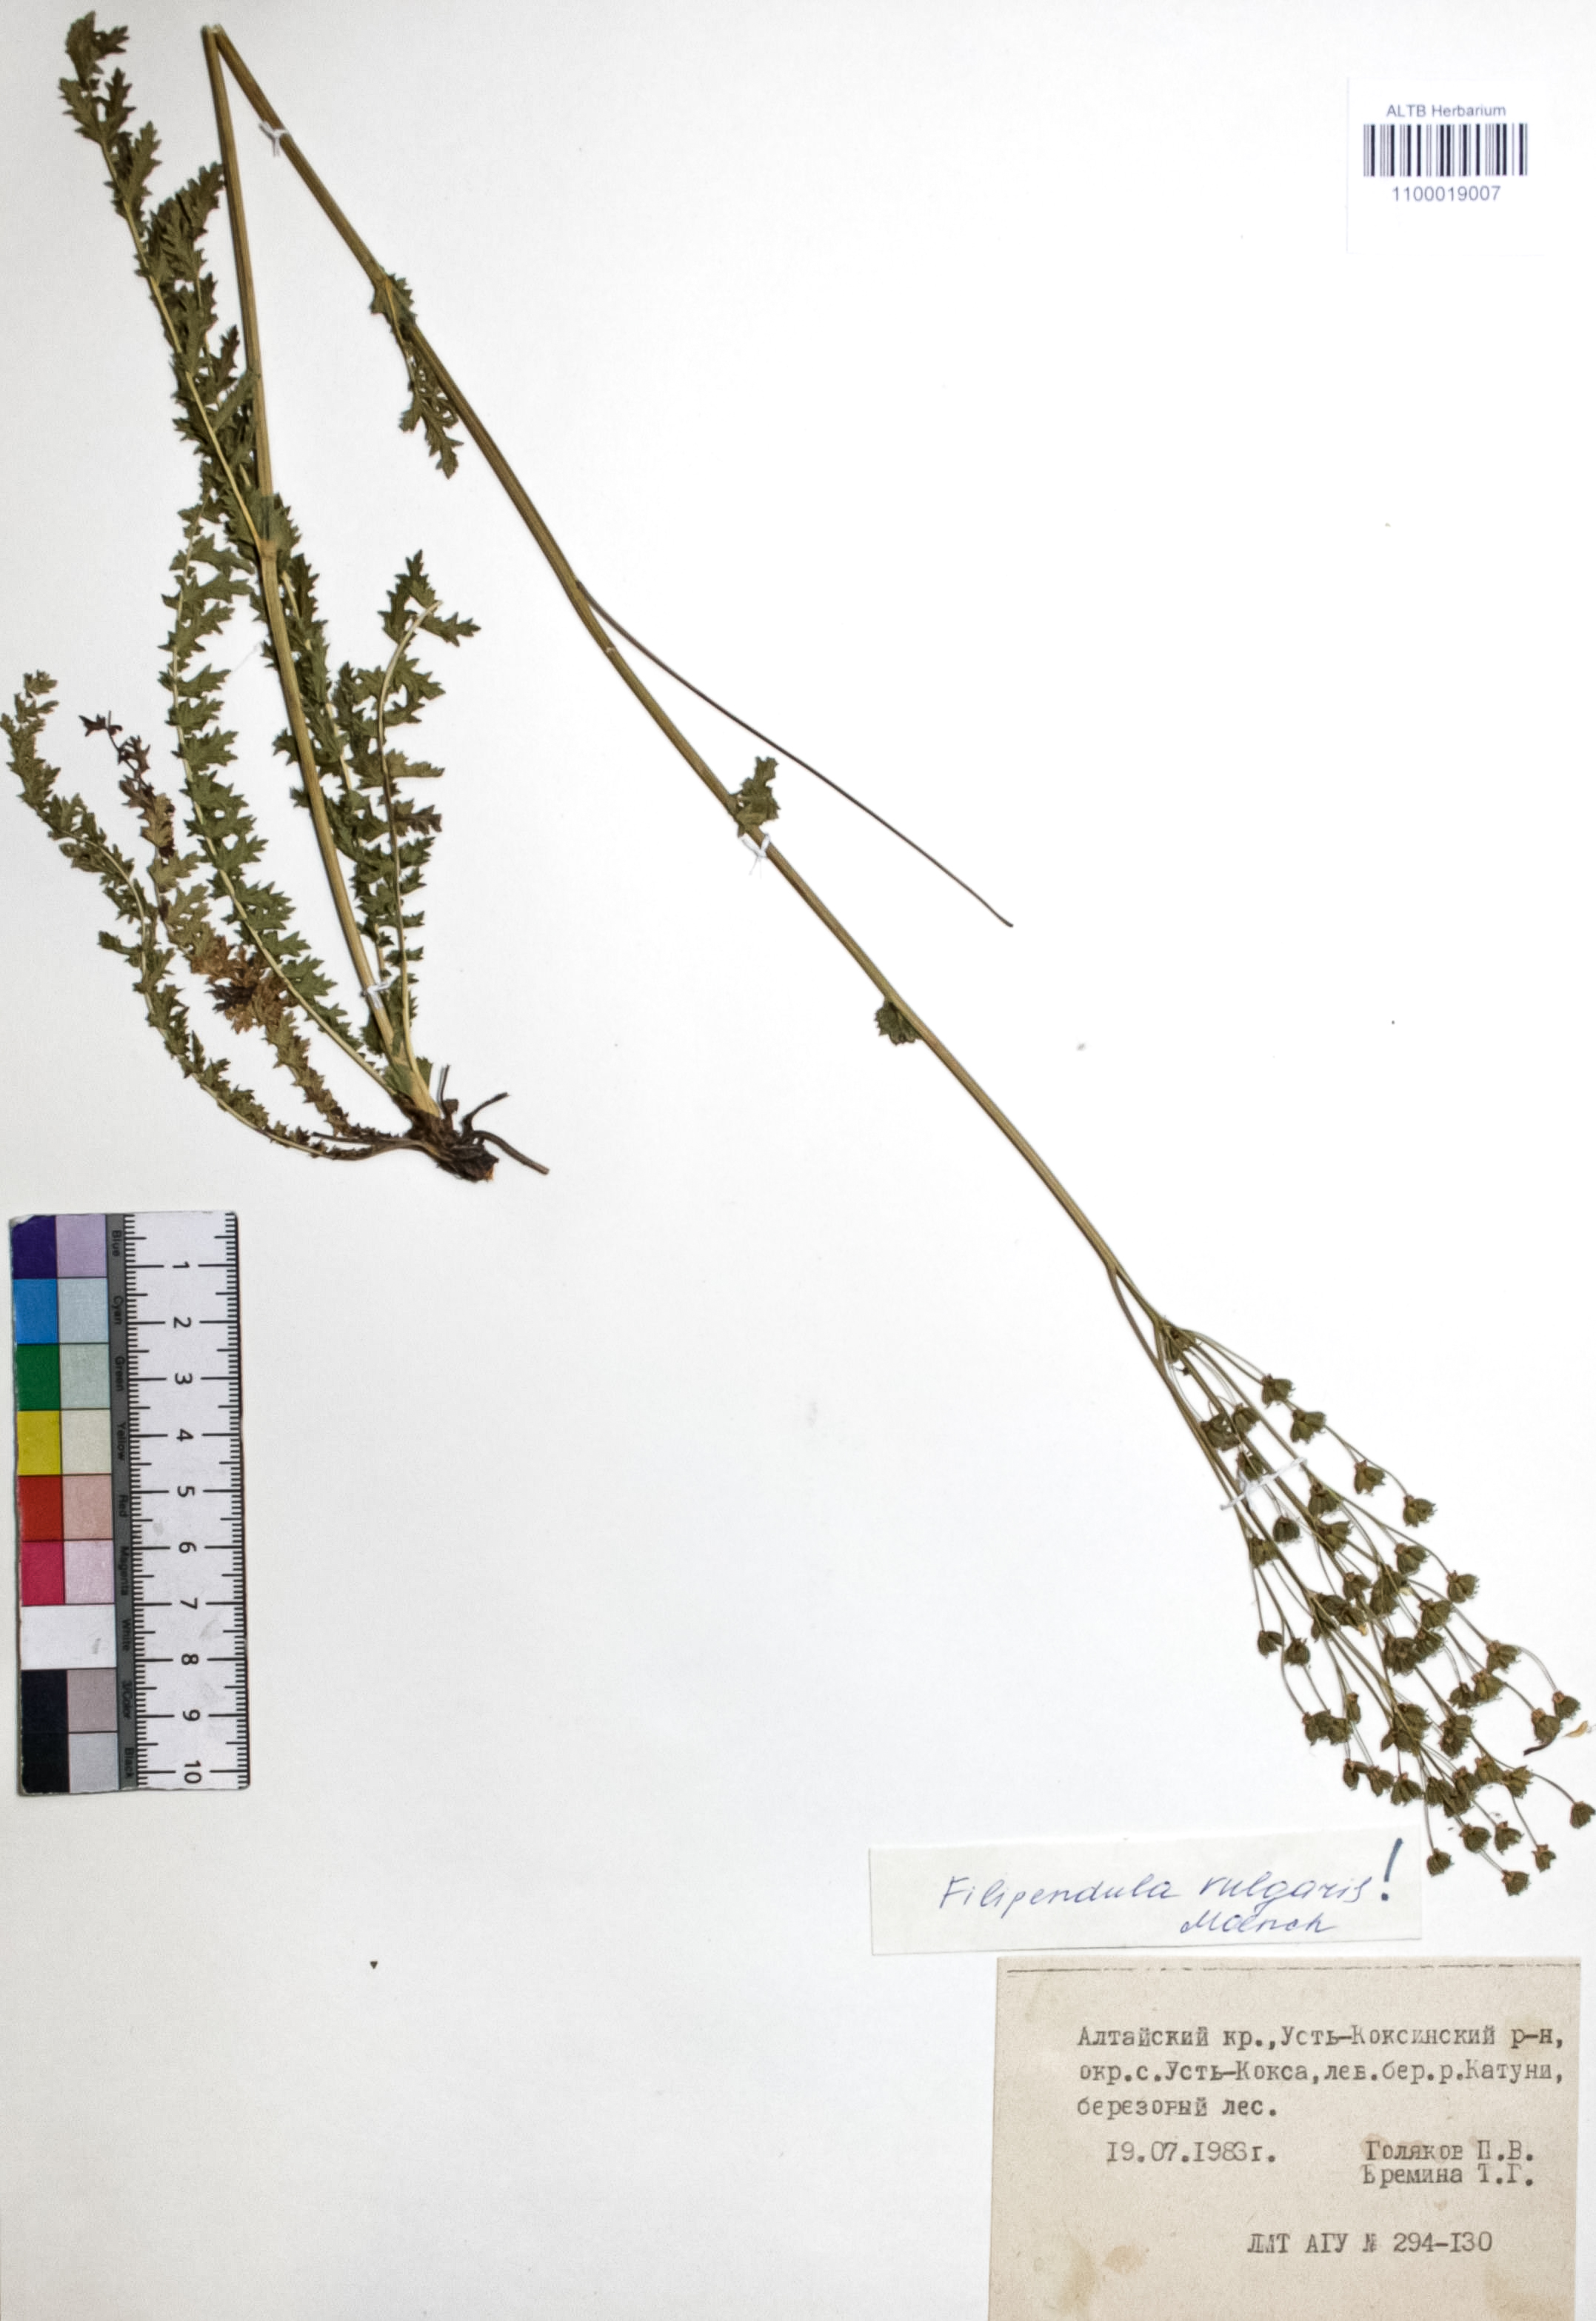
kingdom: Plantae
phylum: Tracheophyta
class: Magnoliopsida
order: Rosales
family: Rosaceae
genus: Filipendula
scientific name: Filipendula vulgaris
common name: Dropwort
